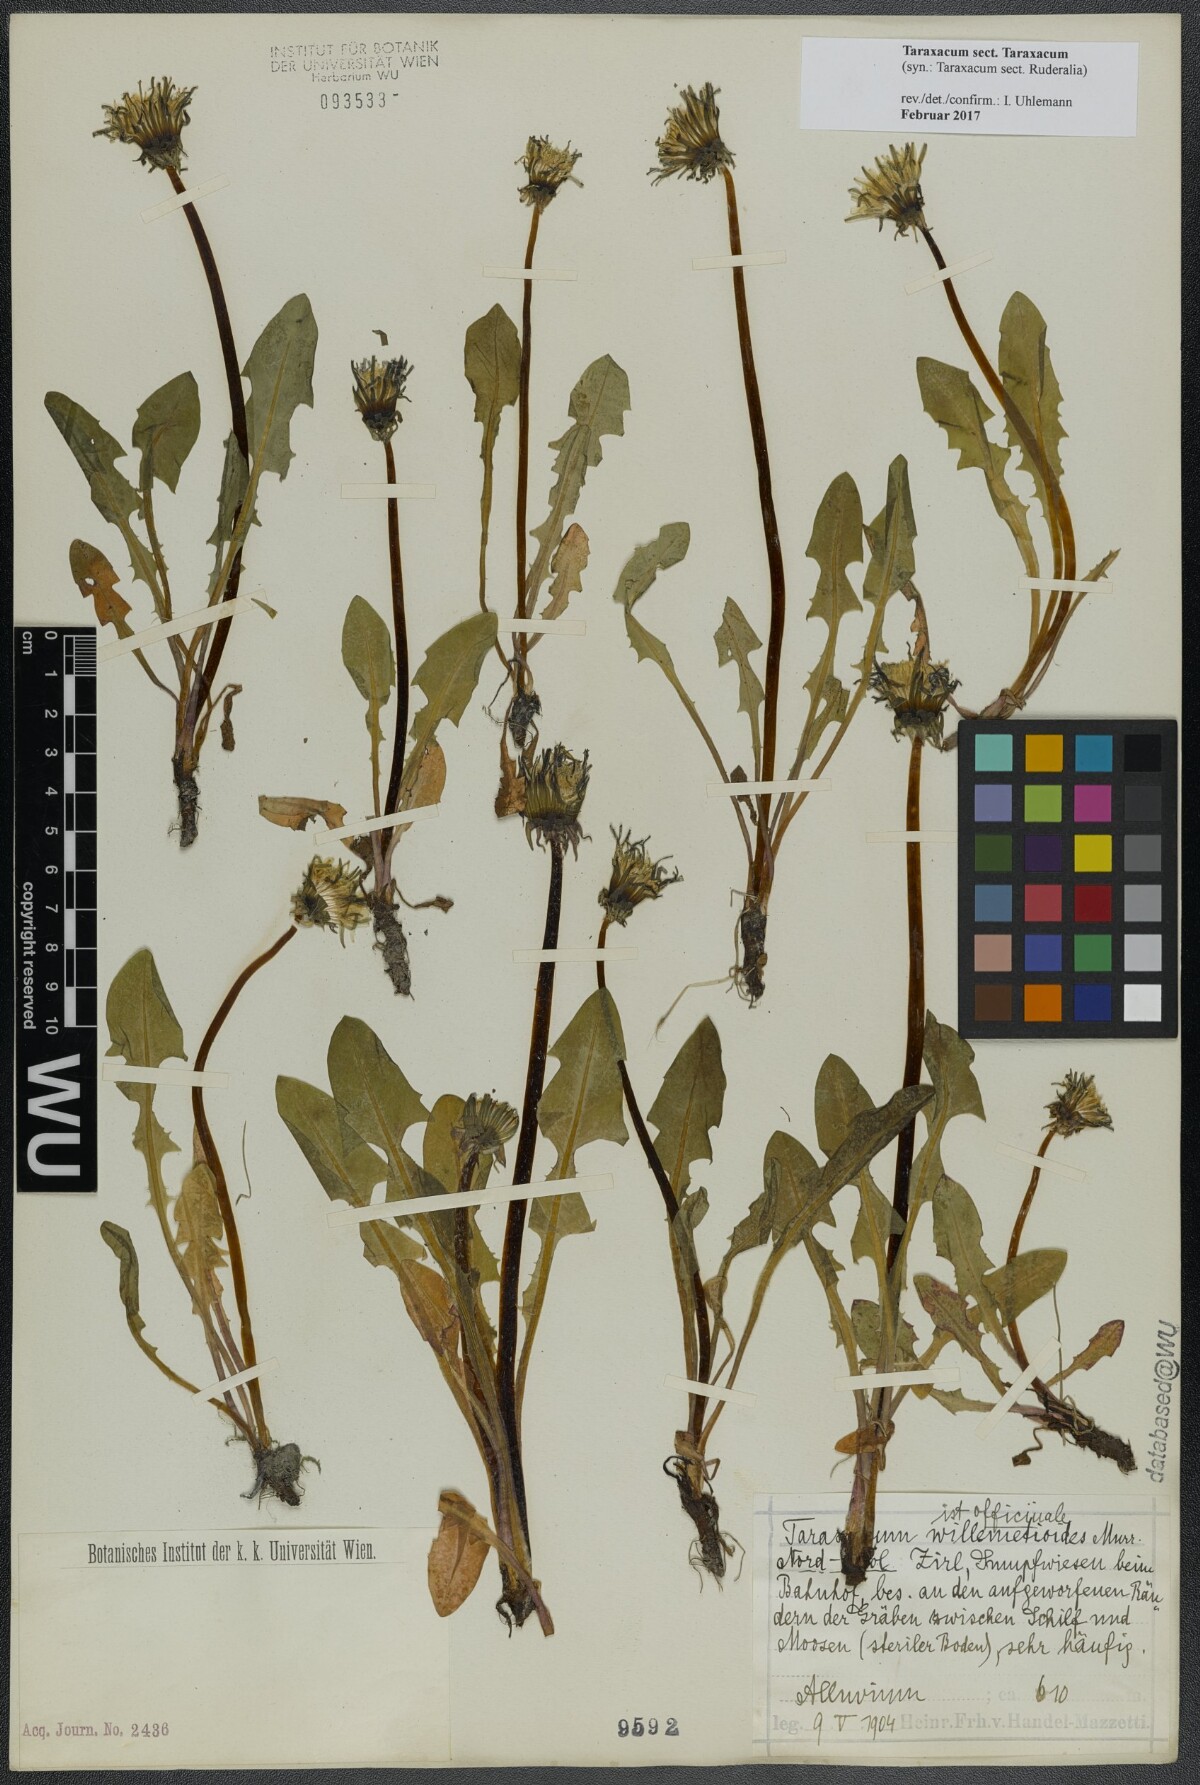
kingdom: Plantae
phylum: Tracheophyta
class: Magnoliopsida
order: Asterales
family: Asteraceae
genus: Taraxacum
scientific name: Taraxacum
